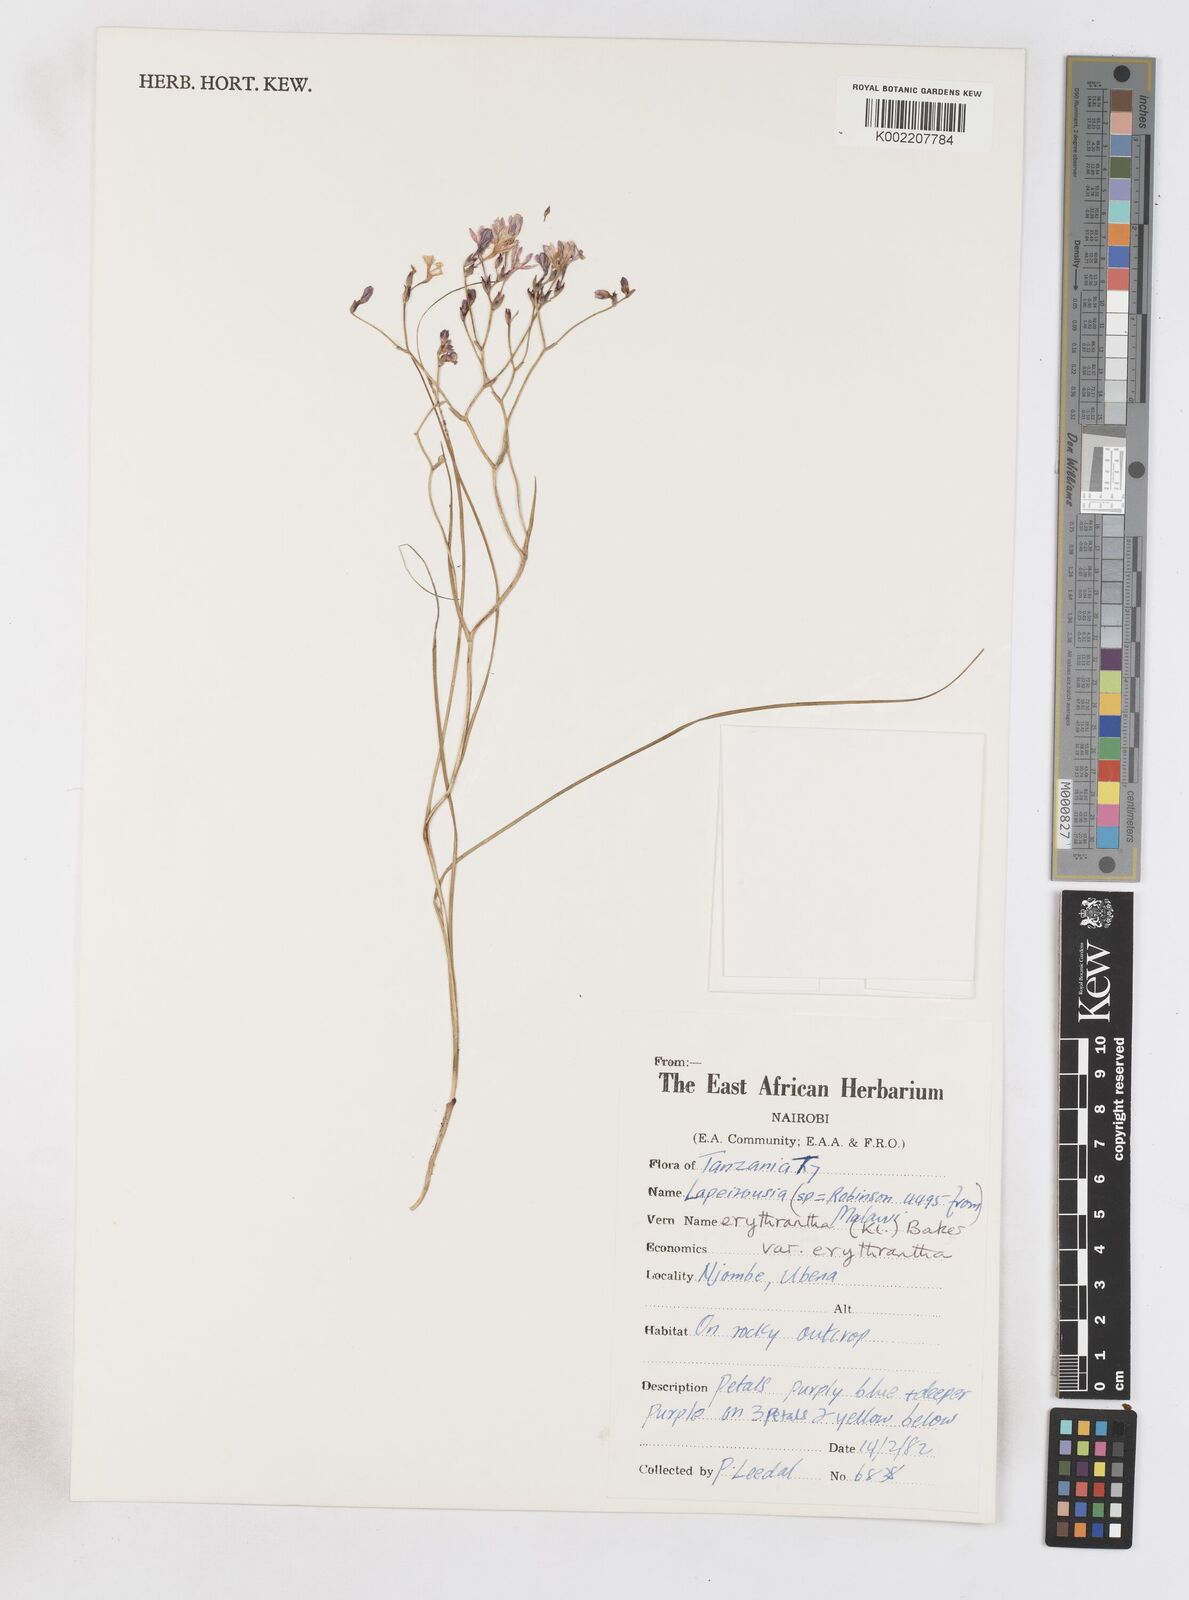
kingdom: Plantae
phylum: Tracheophyta
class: Liliopsida
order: Asparagales
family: Iridaceae
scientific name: Iridaceae
